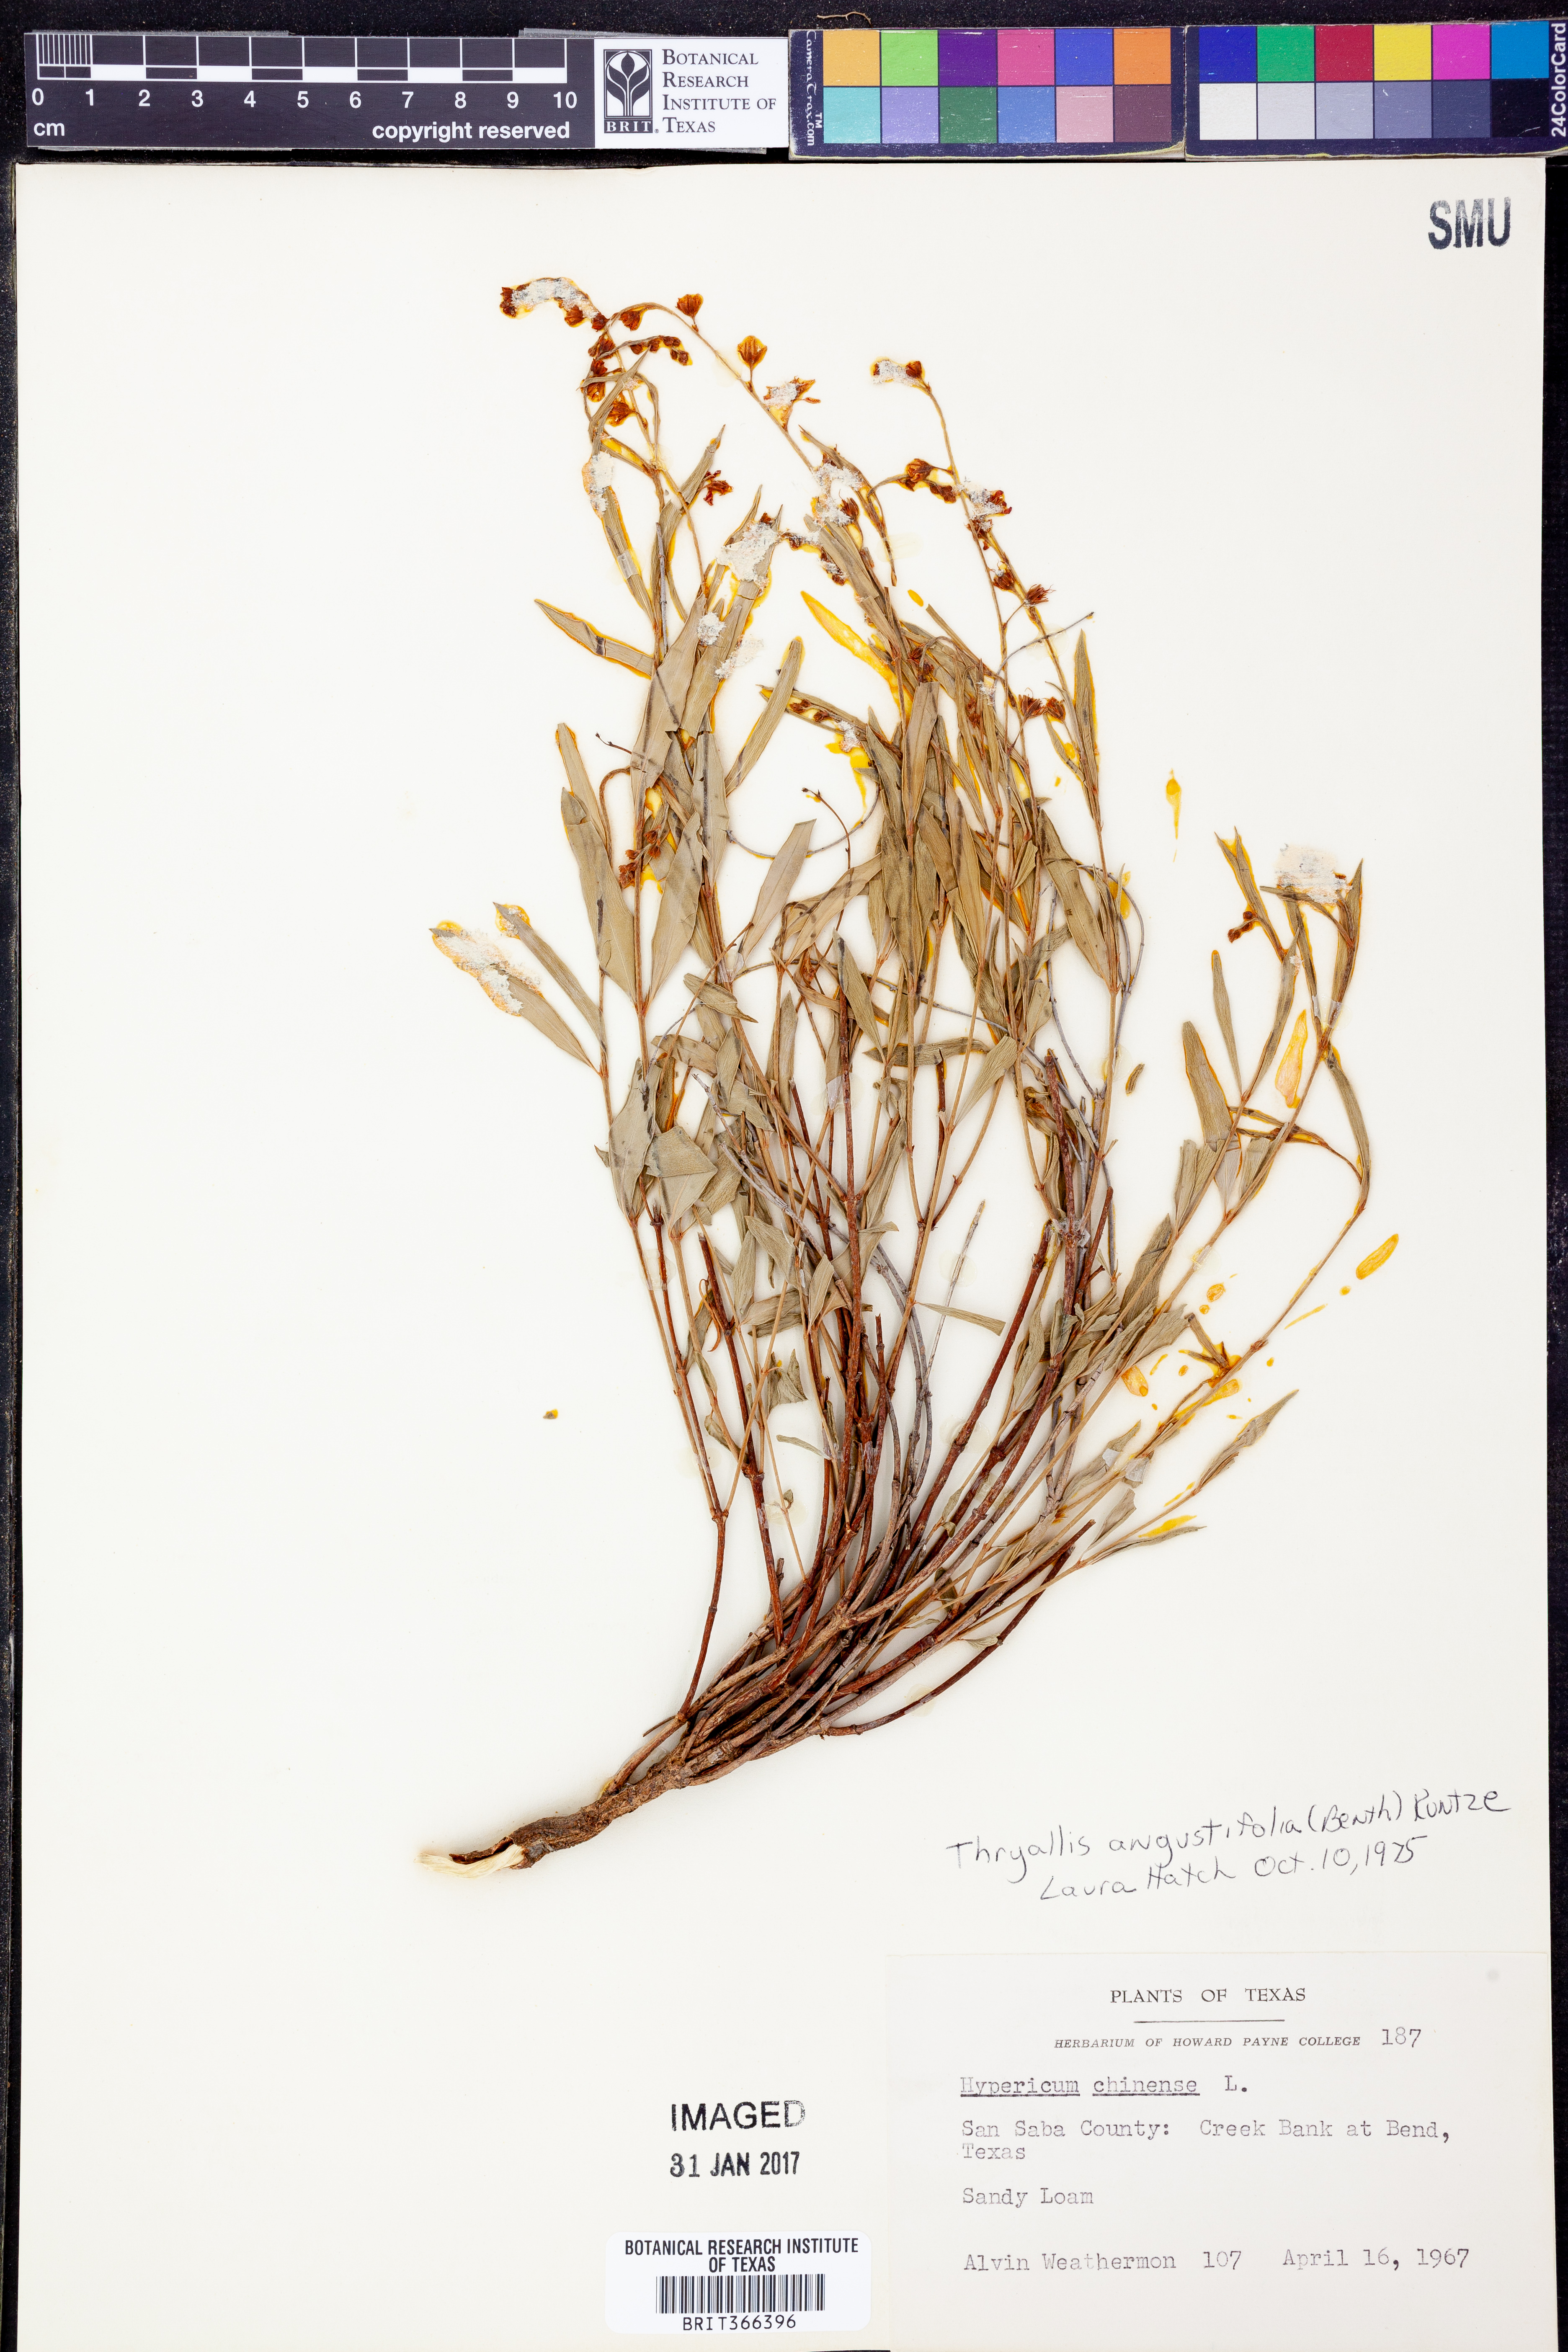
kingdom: Plantae
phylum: Tracheophyta
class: Magnoliopsida
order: Malpighiales
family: Malpighiaceae
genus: Galphimia
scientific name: Galphimia angustifolia
